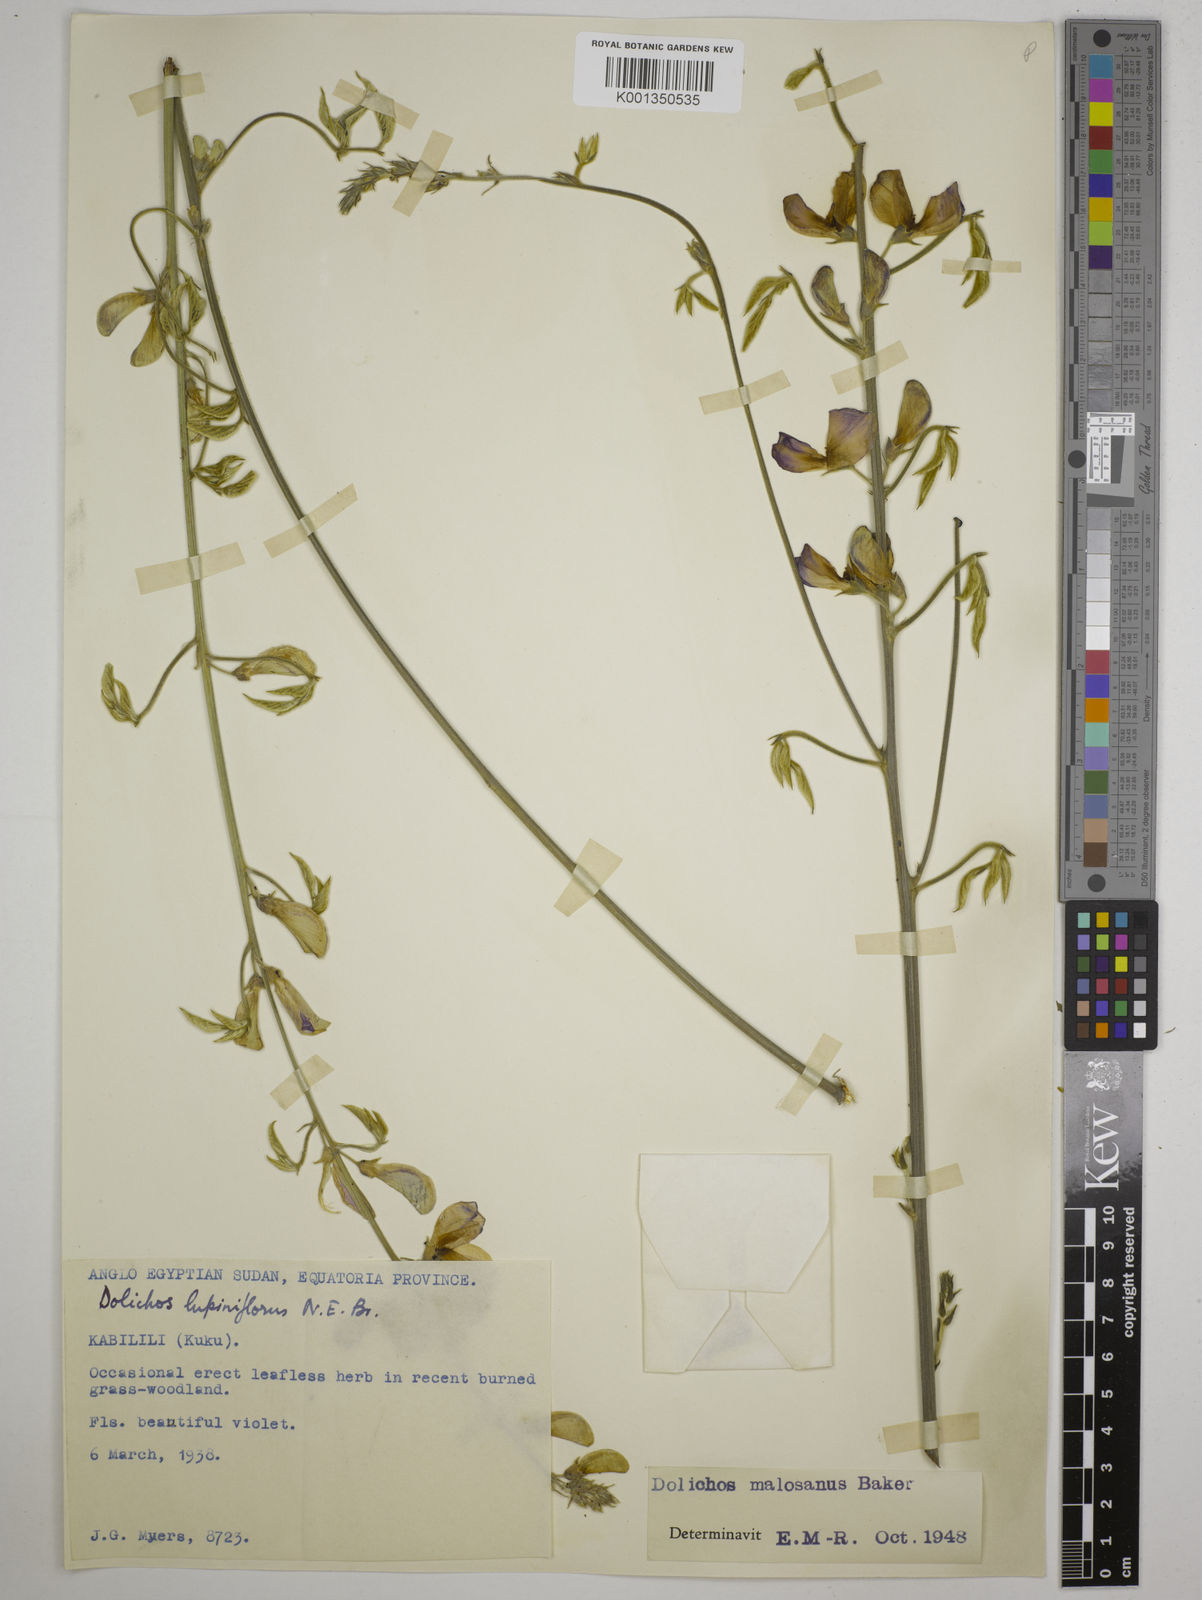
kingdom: Plantae
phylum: Tracheophyta
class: Magnoliopsida
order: Fabales
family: Fabaceae
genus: Dolichos
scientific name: Dolichos kilimandscharicus
